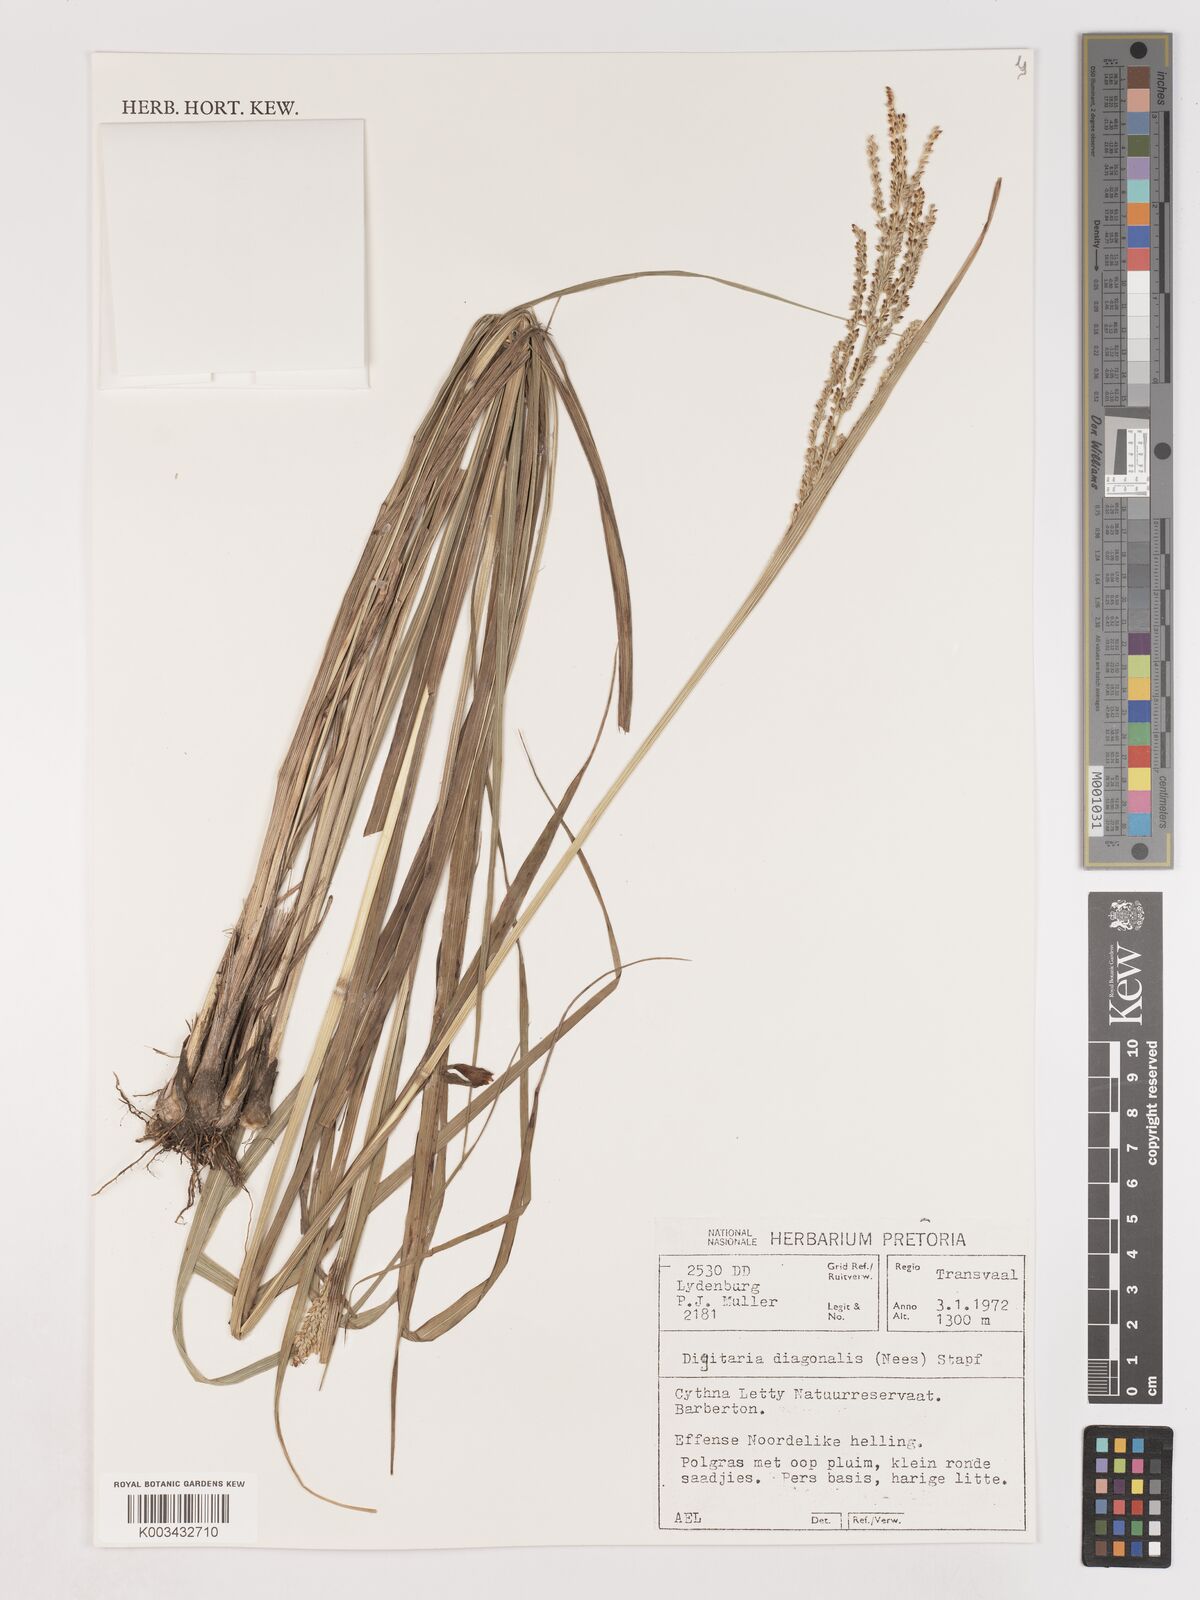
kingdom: Plantae
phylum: Tracheophyta
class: Liliopsida
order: Poales
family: Poaceae
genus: Digitaria
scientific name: Digitaria diagonalis
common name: Brown-seed finger grass
